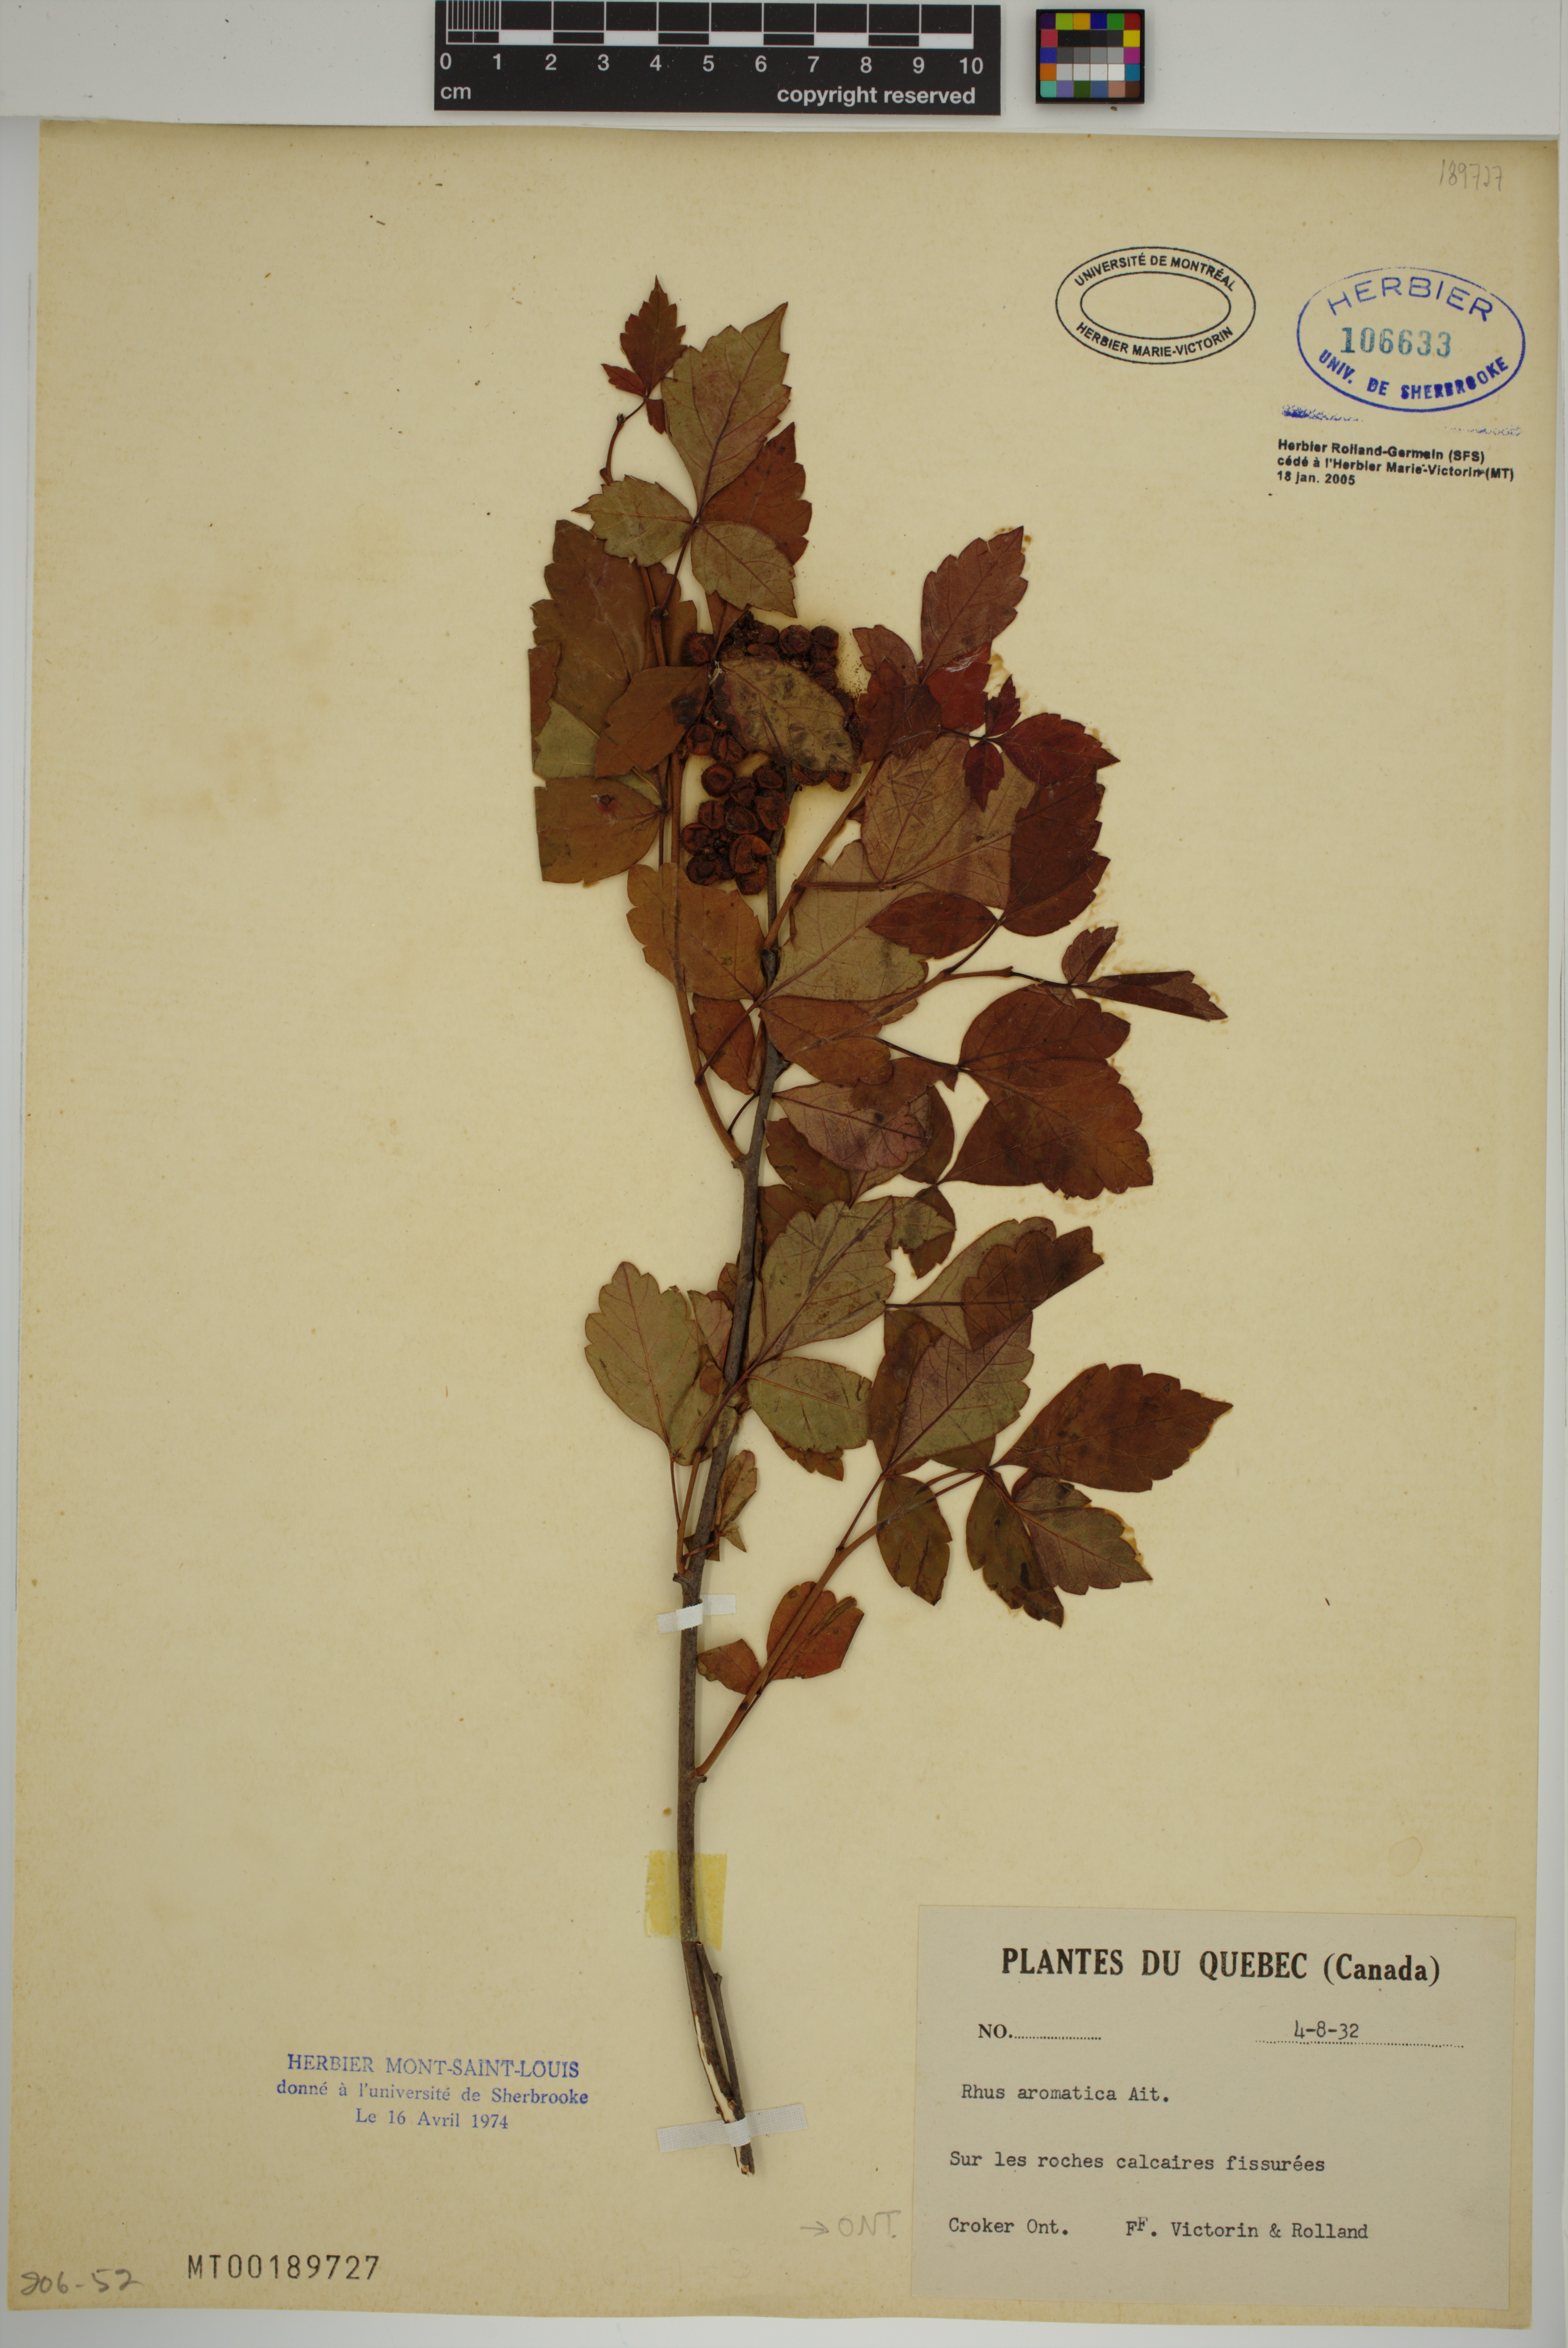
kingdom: Plantae
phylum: Tracheophyta
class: Magnoliopsida
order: Sapindales
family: Anacardiaceae
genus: Rhus
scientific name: Rhus aromatica
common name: Aromatic sumac
